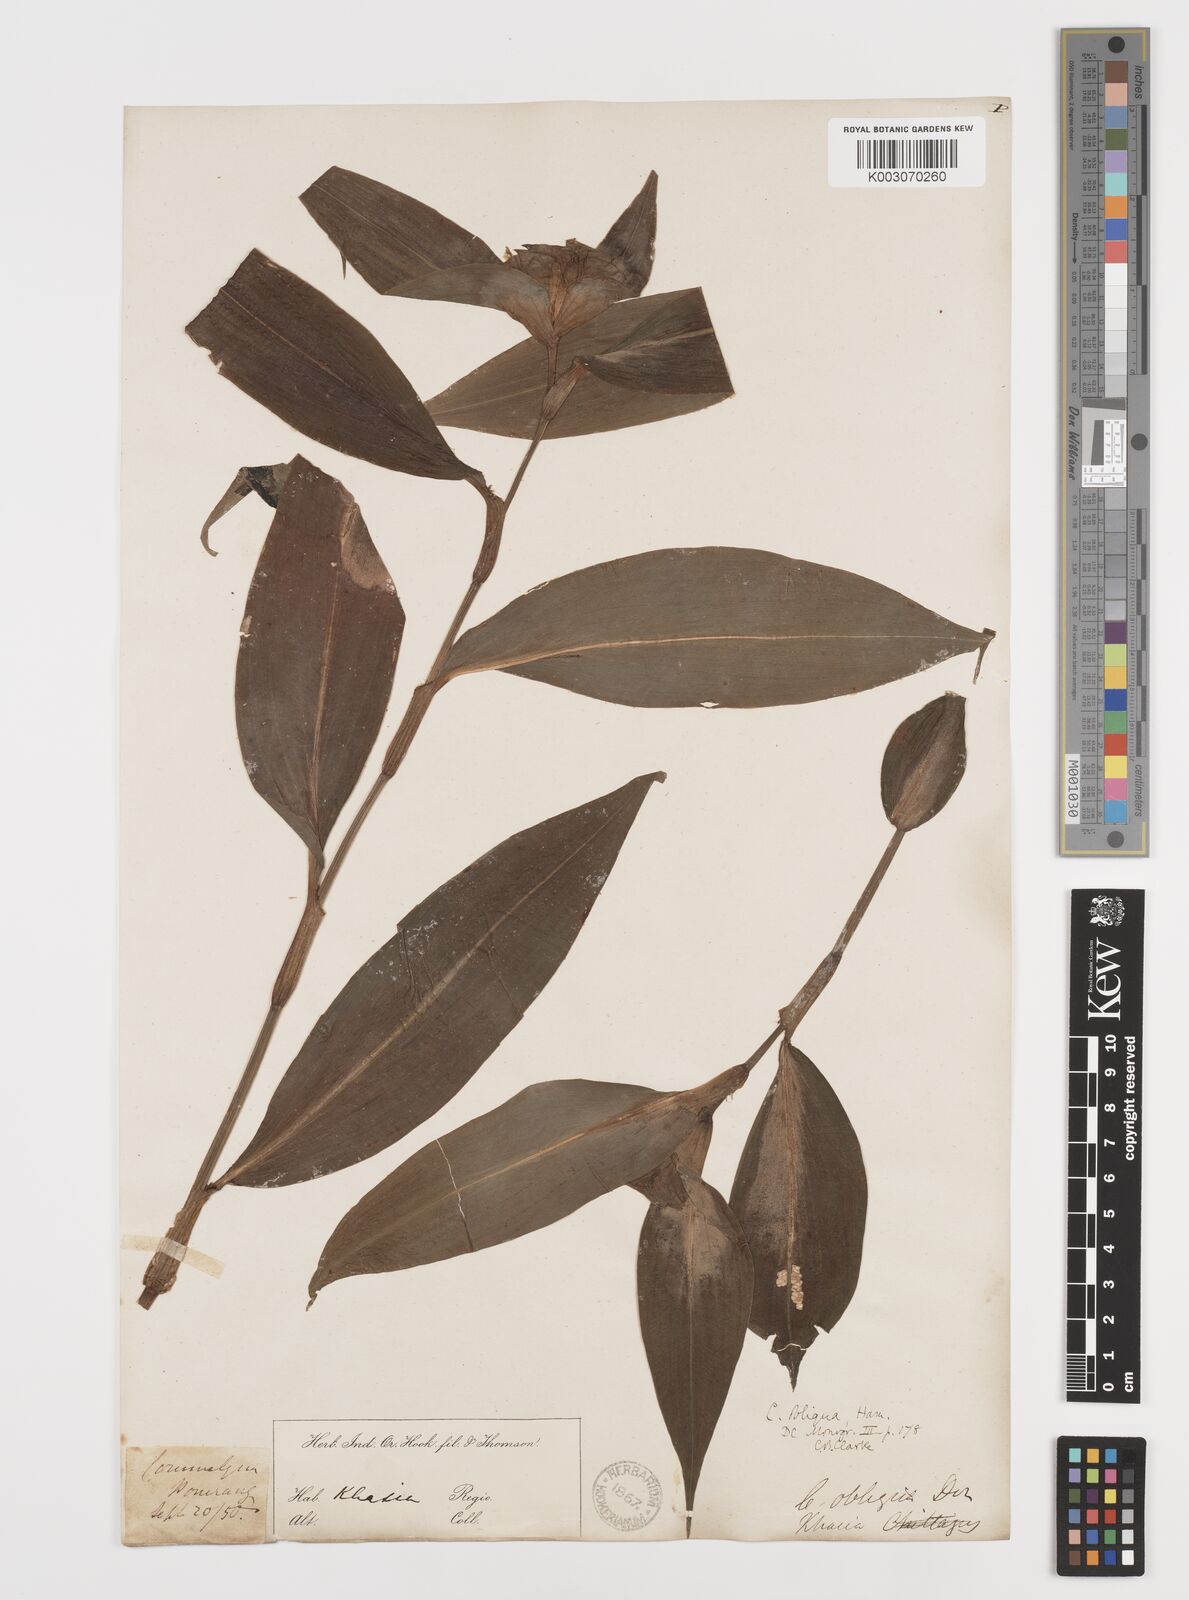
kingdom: Plantae
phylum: Tracheophyta
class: Liliopsida
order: Commelinales
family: Commelinaceae
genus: Commelina
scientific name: Commelina paludosa
